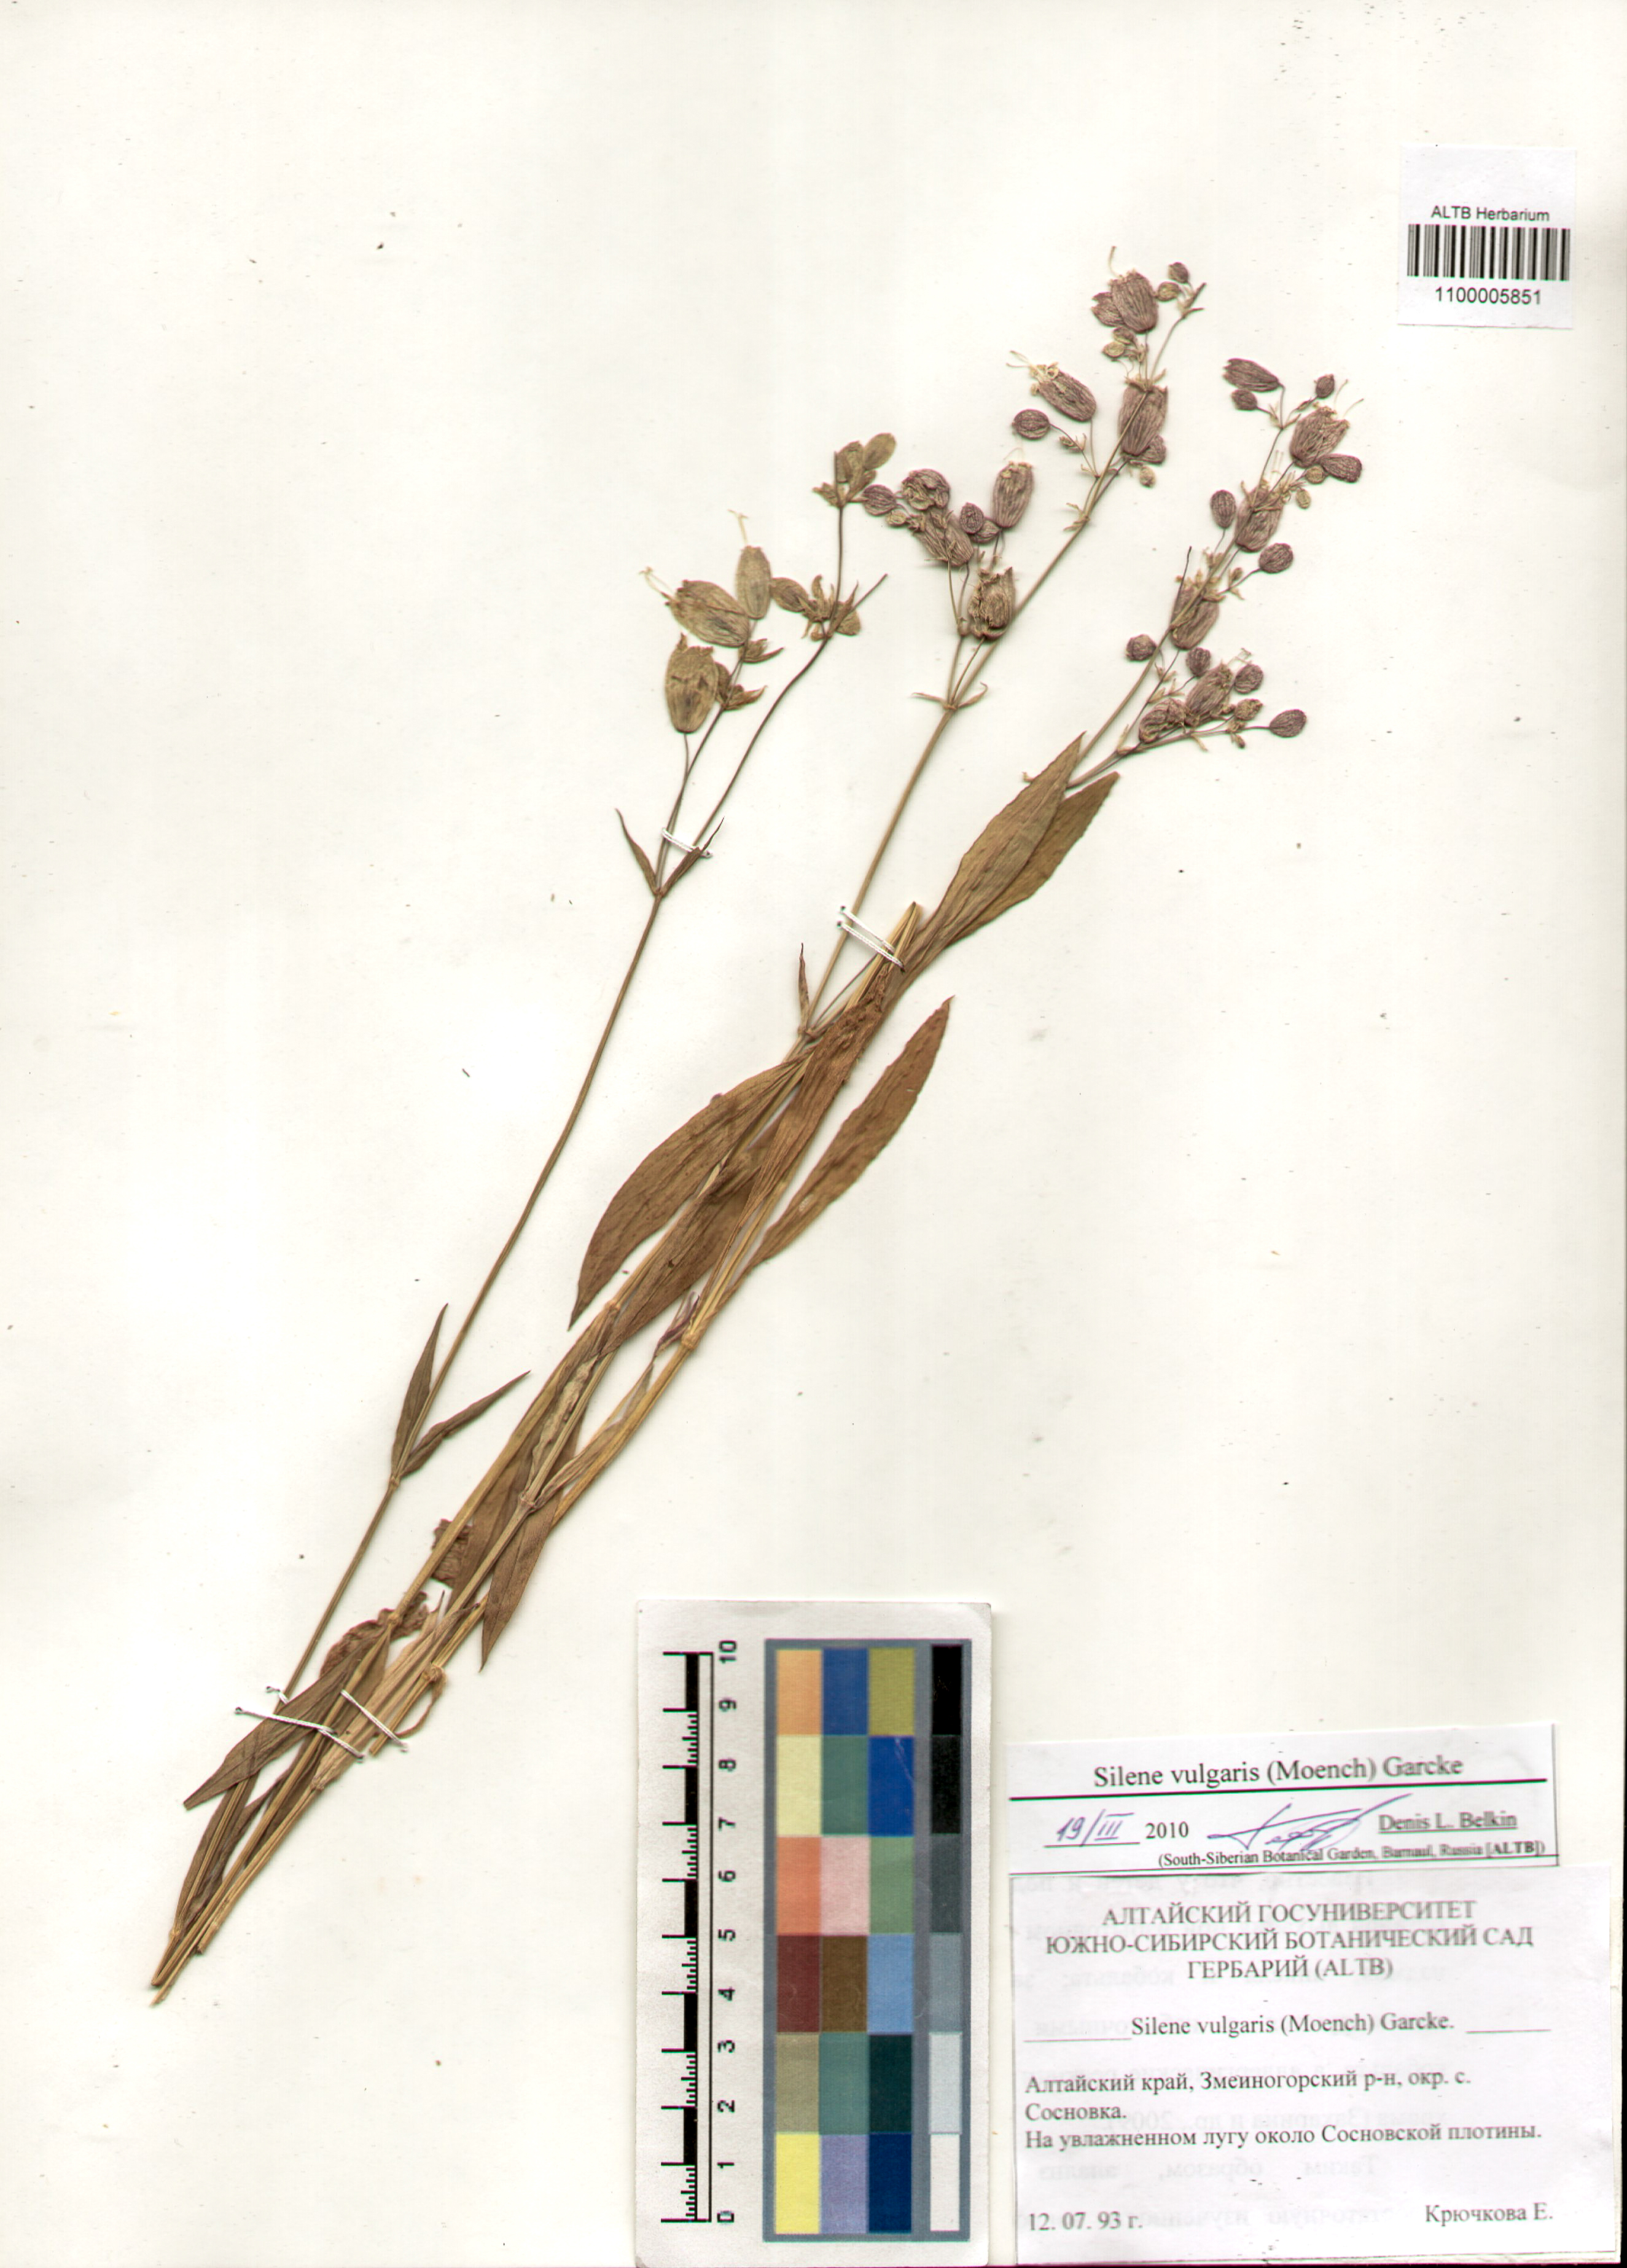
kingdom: Plantae
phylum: Tracheophyta
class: Magnoliopsida
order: Caryophyllales
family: Caryophyllaceae
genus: Silene
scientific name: Silene vulgaris
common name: Bladder campion
